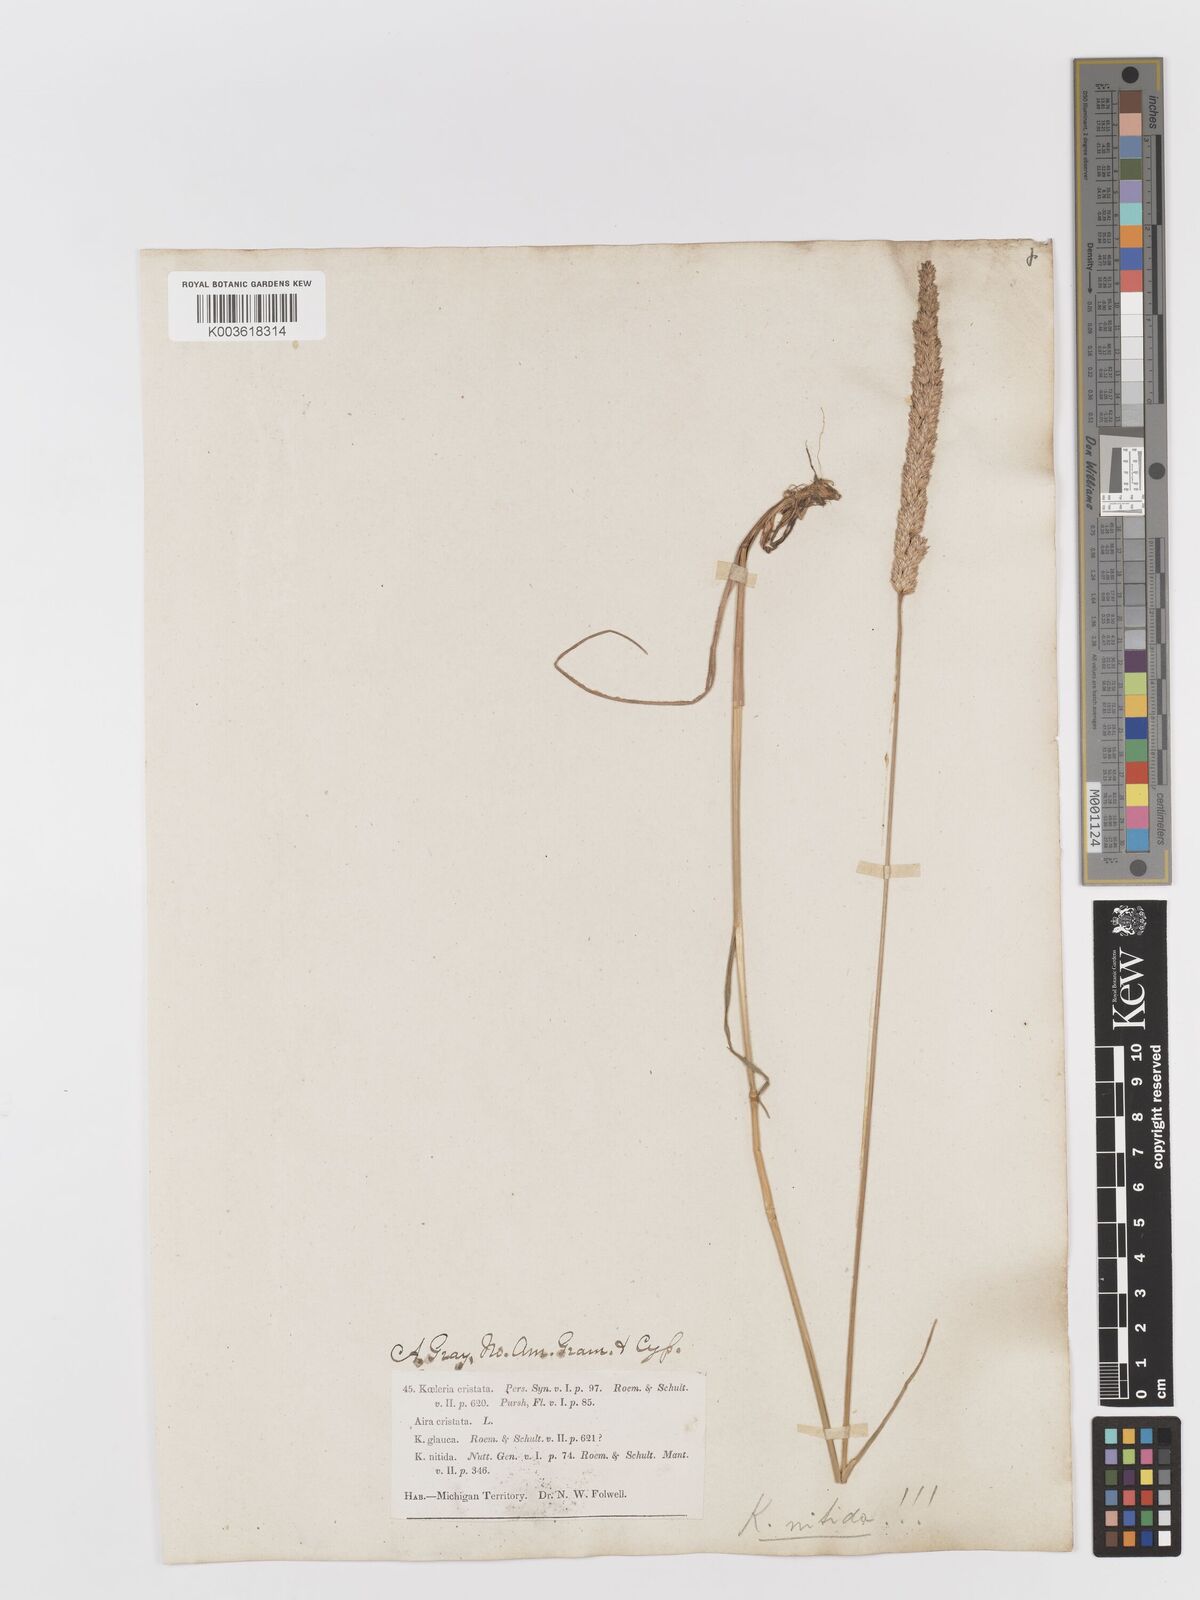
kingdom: Plantae
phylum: Tracheophyta
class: Liliopsida
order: Poales
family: Poaceae
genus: Koeleria
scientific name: Koeleria macrantha
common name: Crested hair-grass
